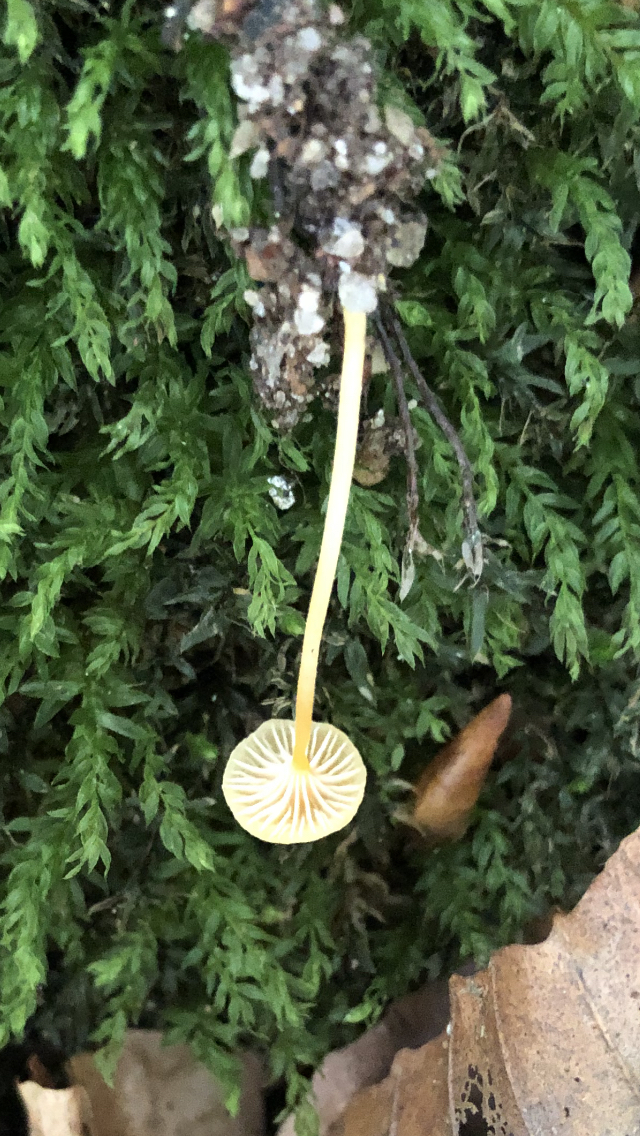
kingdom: Fungi
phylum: Basidiomycota
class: Agaricomycetes
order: Hymenochaetales
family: Rickenellaceae
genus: Rickenella
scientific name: Rickenella fibula
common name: orange mosnavlehat
